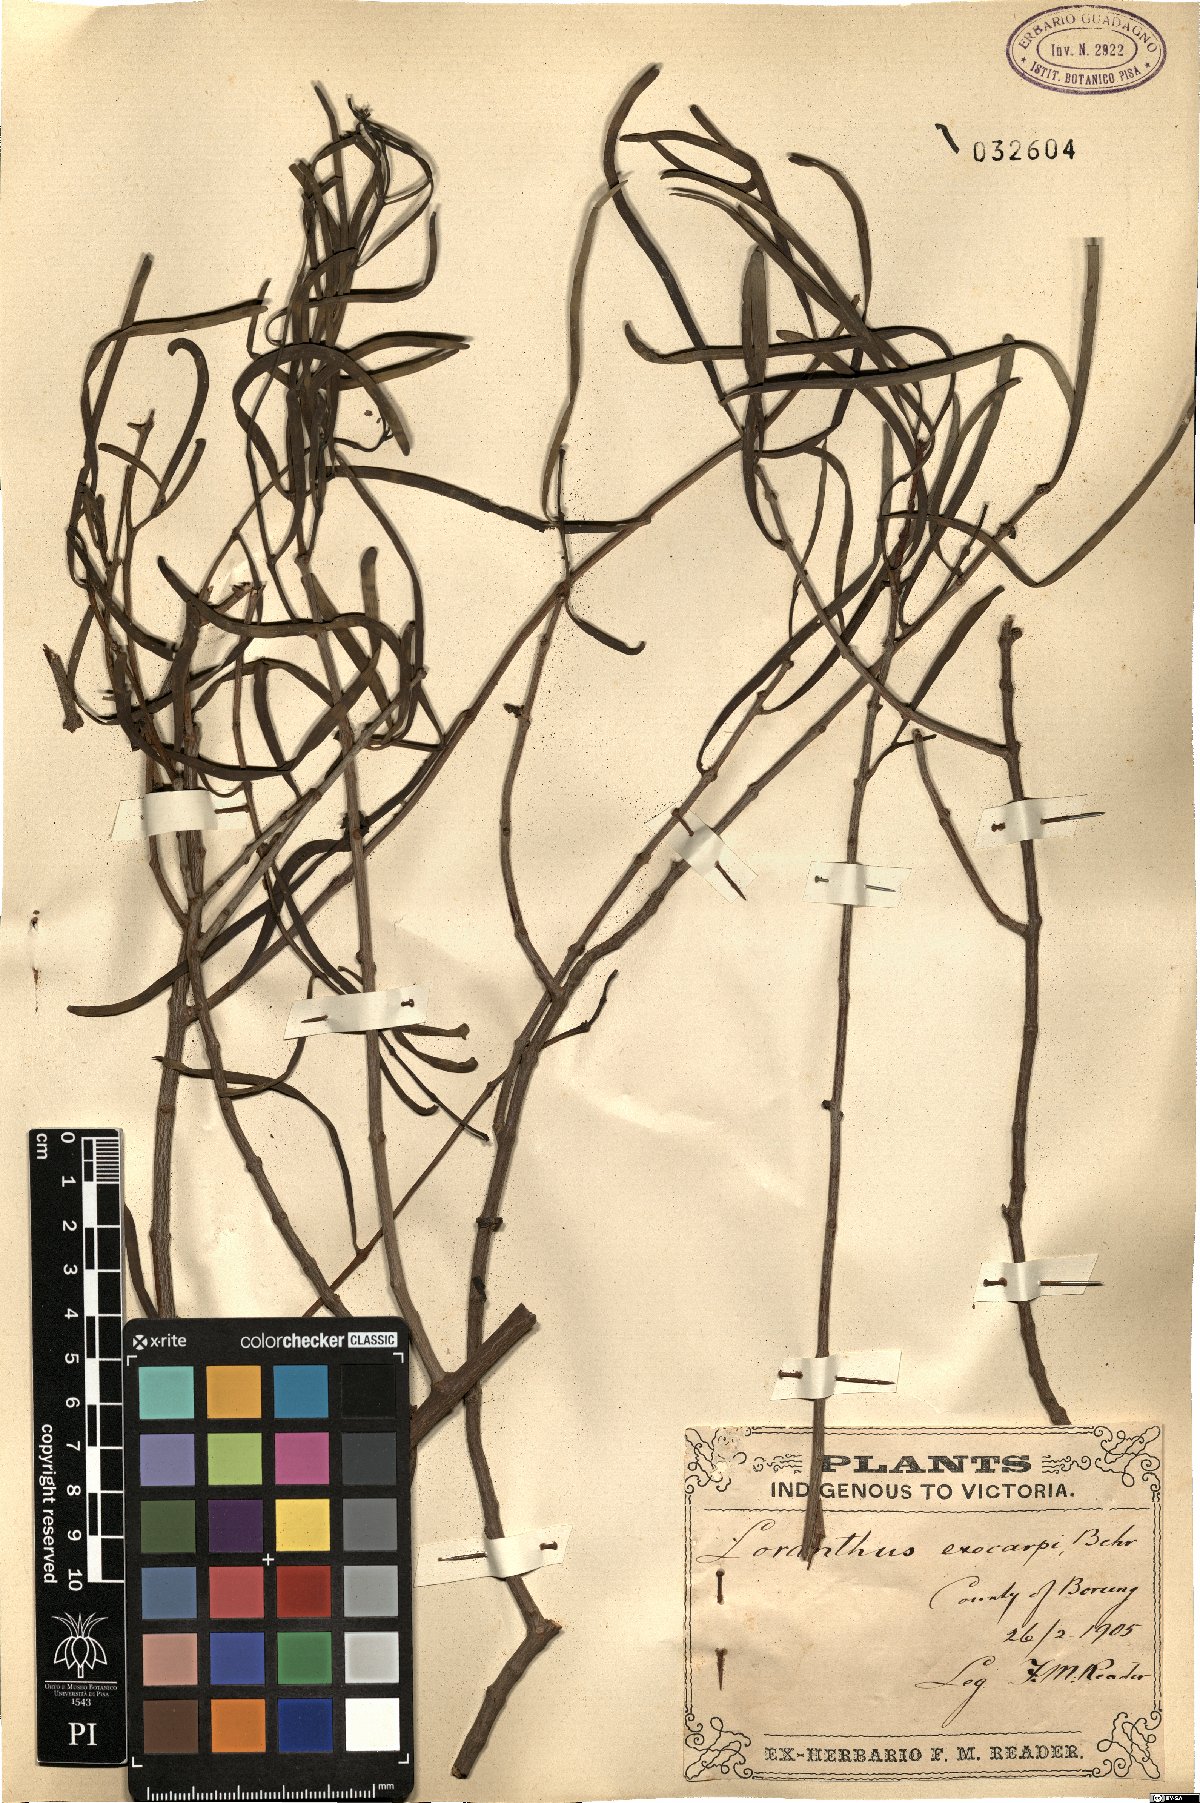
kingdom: Plantae
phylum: Tracheophyta
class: Magnoliopsida
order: Santalales
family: Loranthaceae
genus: Lysiana
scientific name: Lysiana exocarpi
